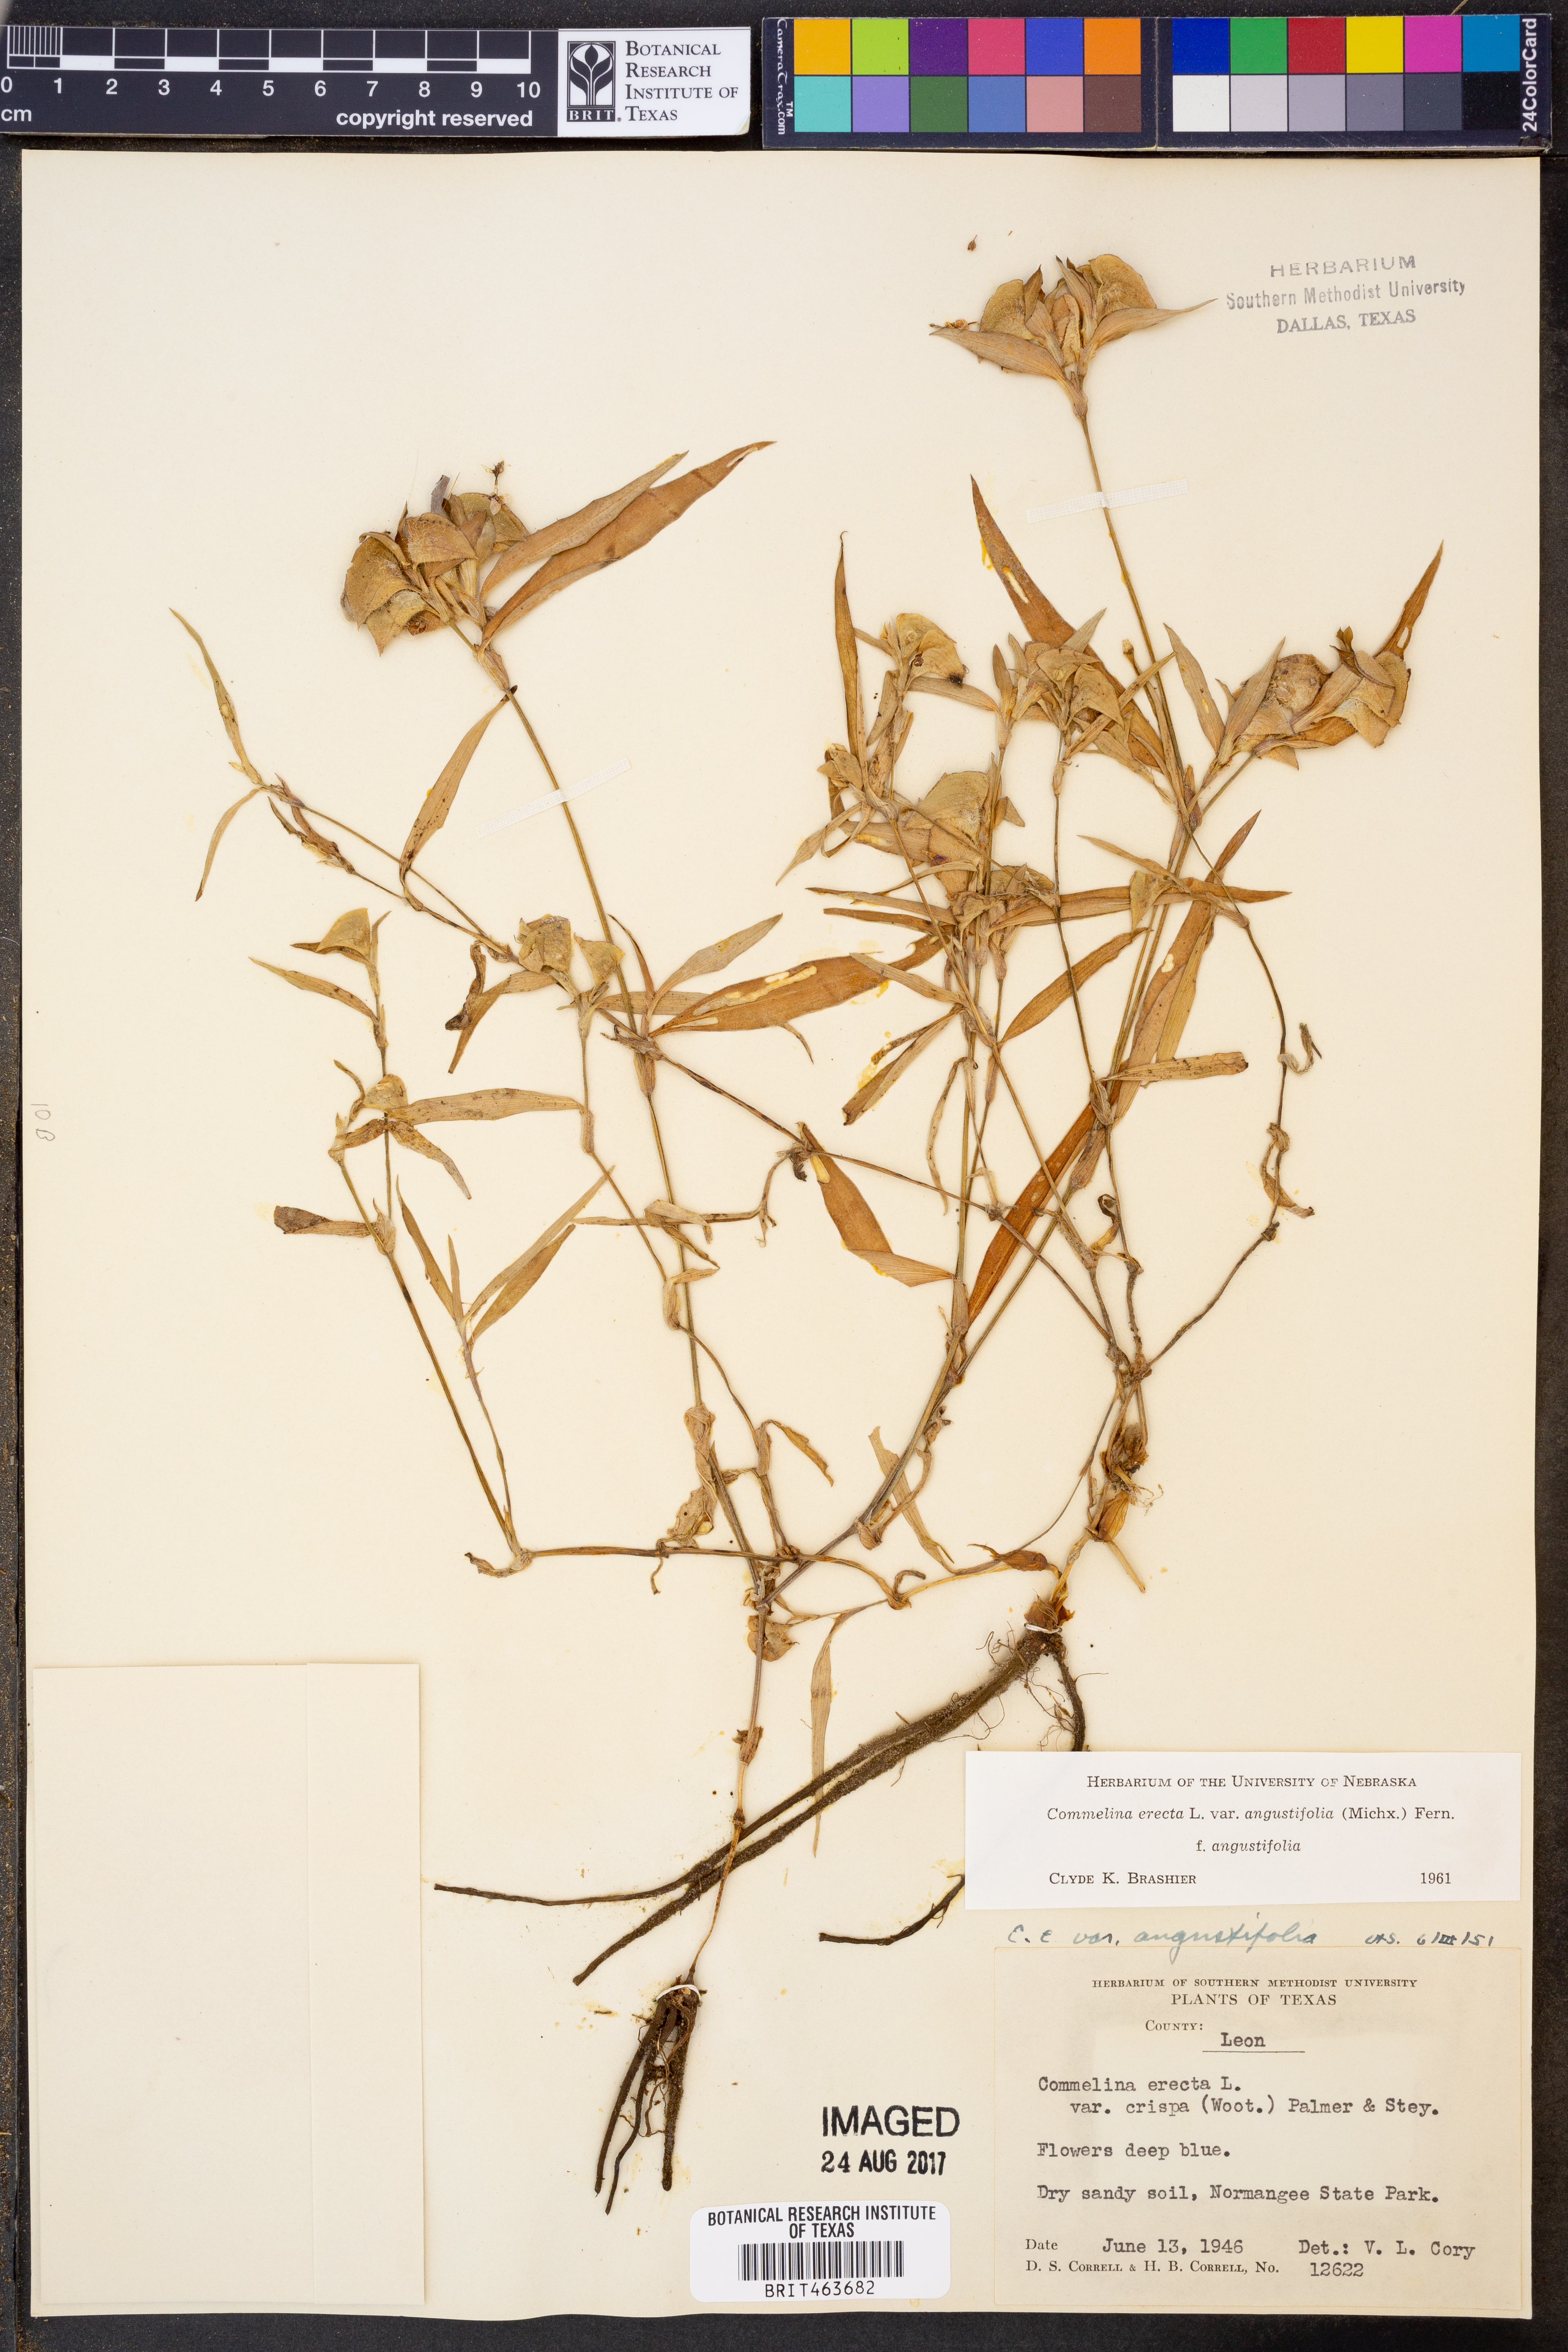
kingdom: Plantae
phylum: Tracheophyta
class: Liliopsida
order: Commelinales
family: Commelinaceae
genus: Commelina
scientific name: Commelina erecta
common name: Blousel blommetjie
